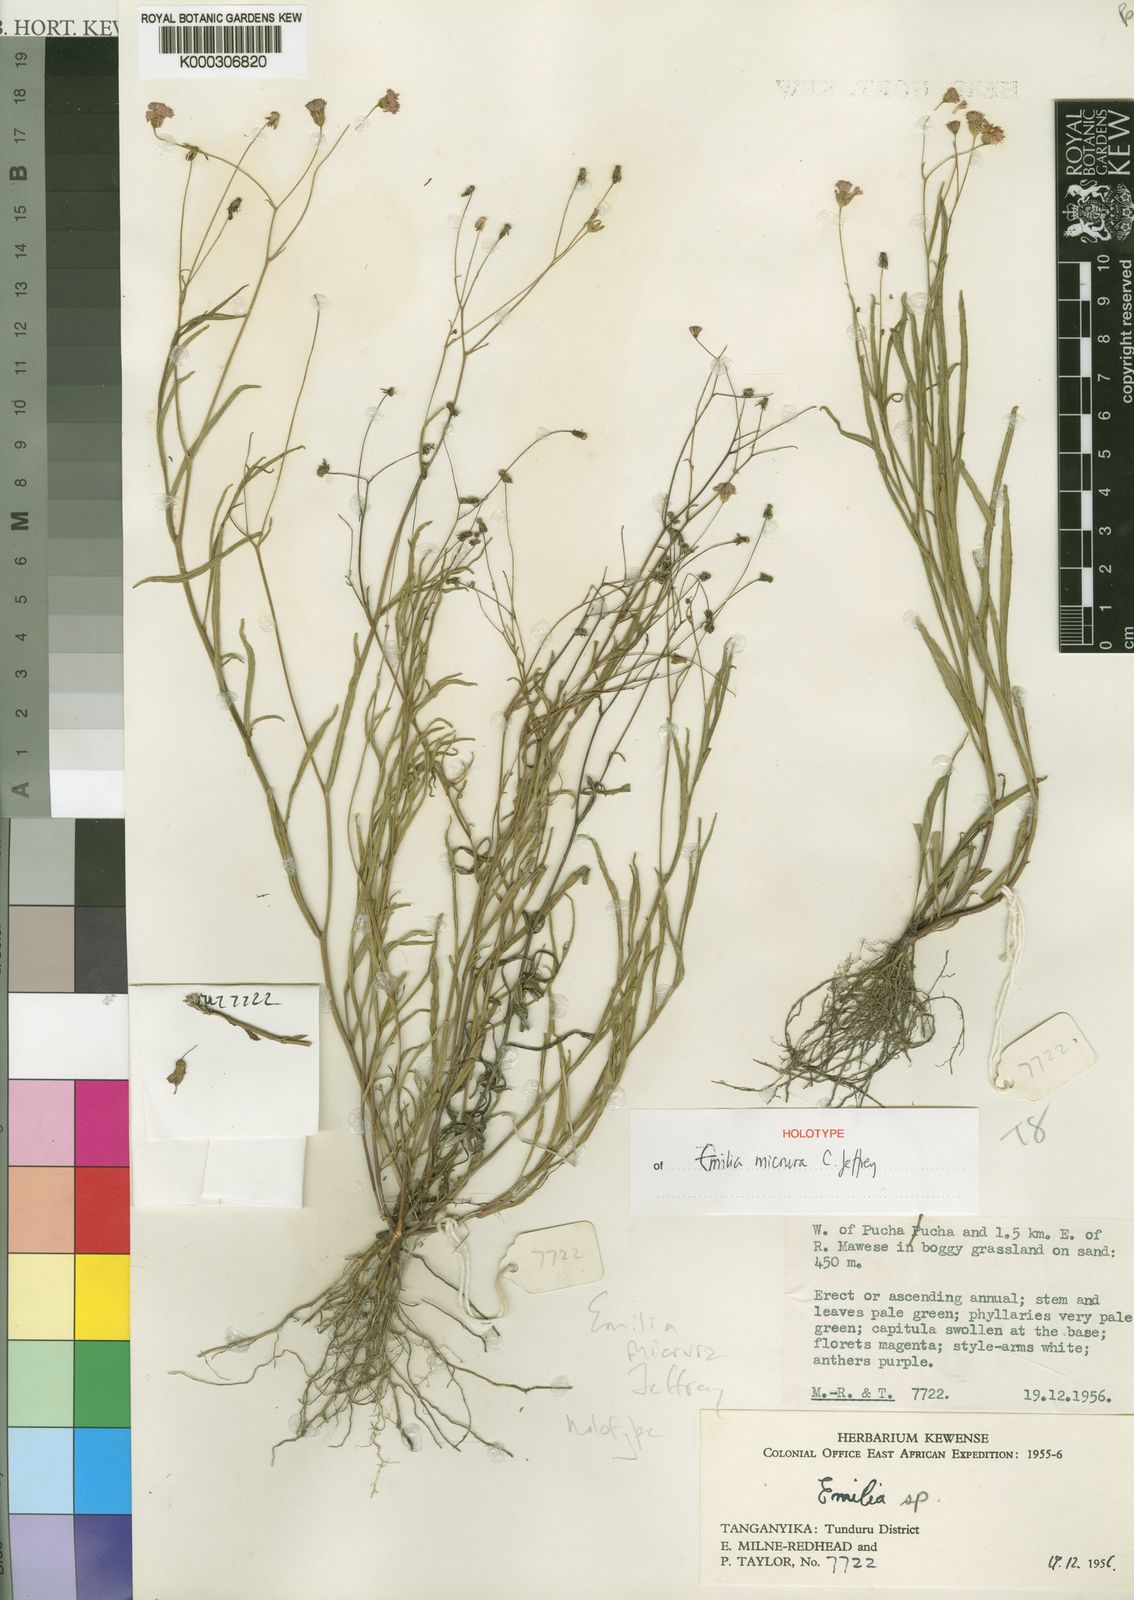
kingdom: Plantae
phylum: Tracheophyta
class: Magnoliopsida
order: Asterales
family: Asteraceae
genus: Emilia
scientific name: Emilia micrura
